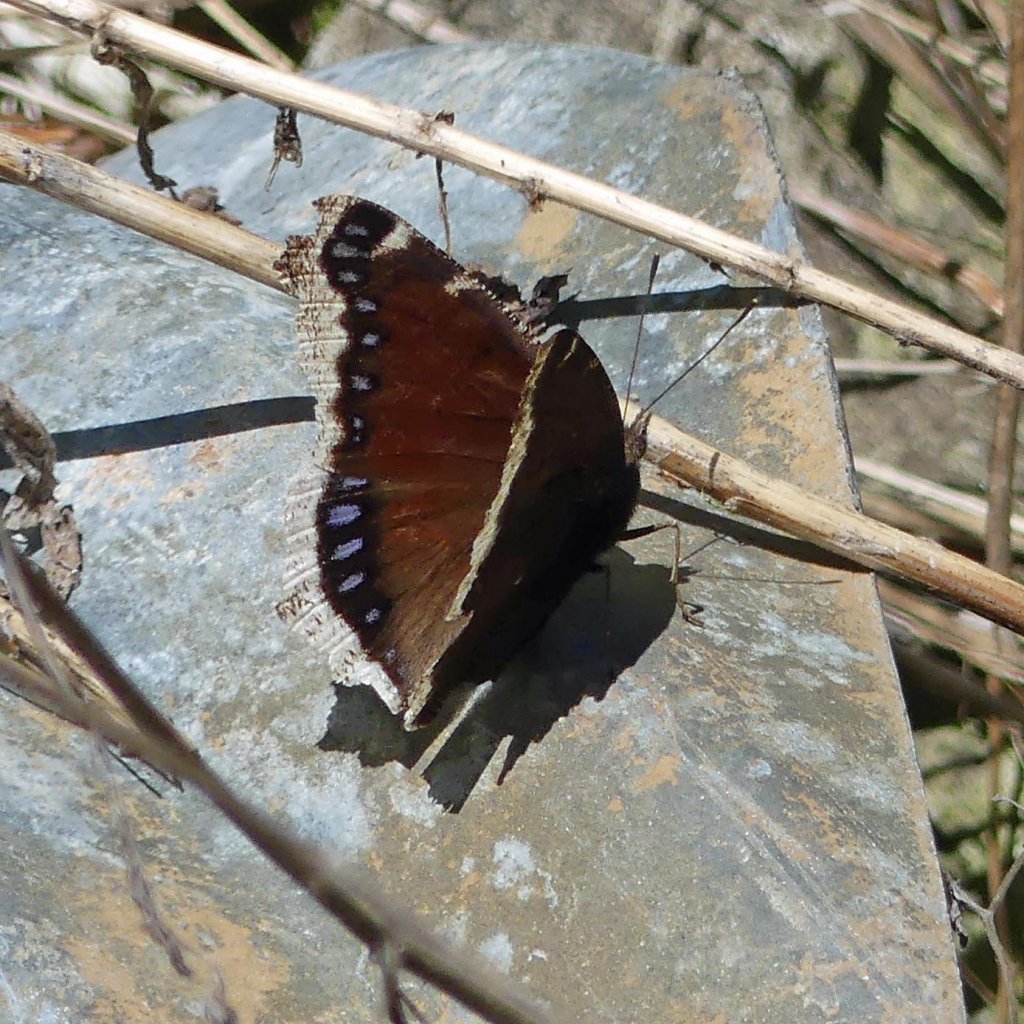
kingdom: Animalia
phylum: Arthropoda
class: Insecta
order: Lepidoptera
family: Nymphalidae
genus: Nymphalis
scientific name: Nymphalis antiopa
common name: Mourning Cloak
